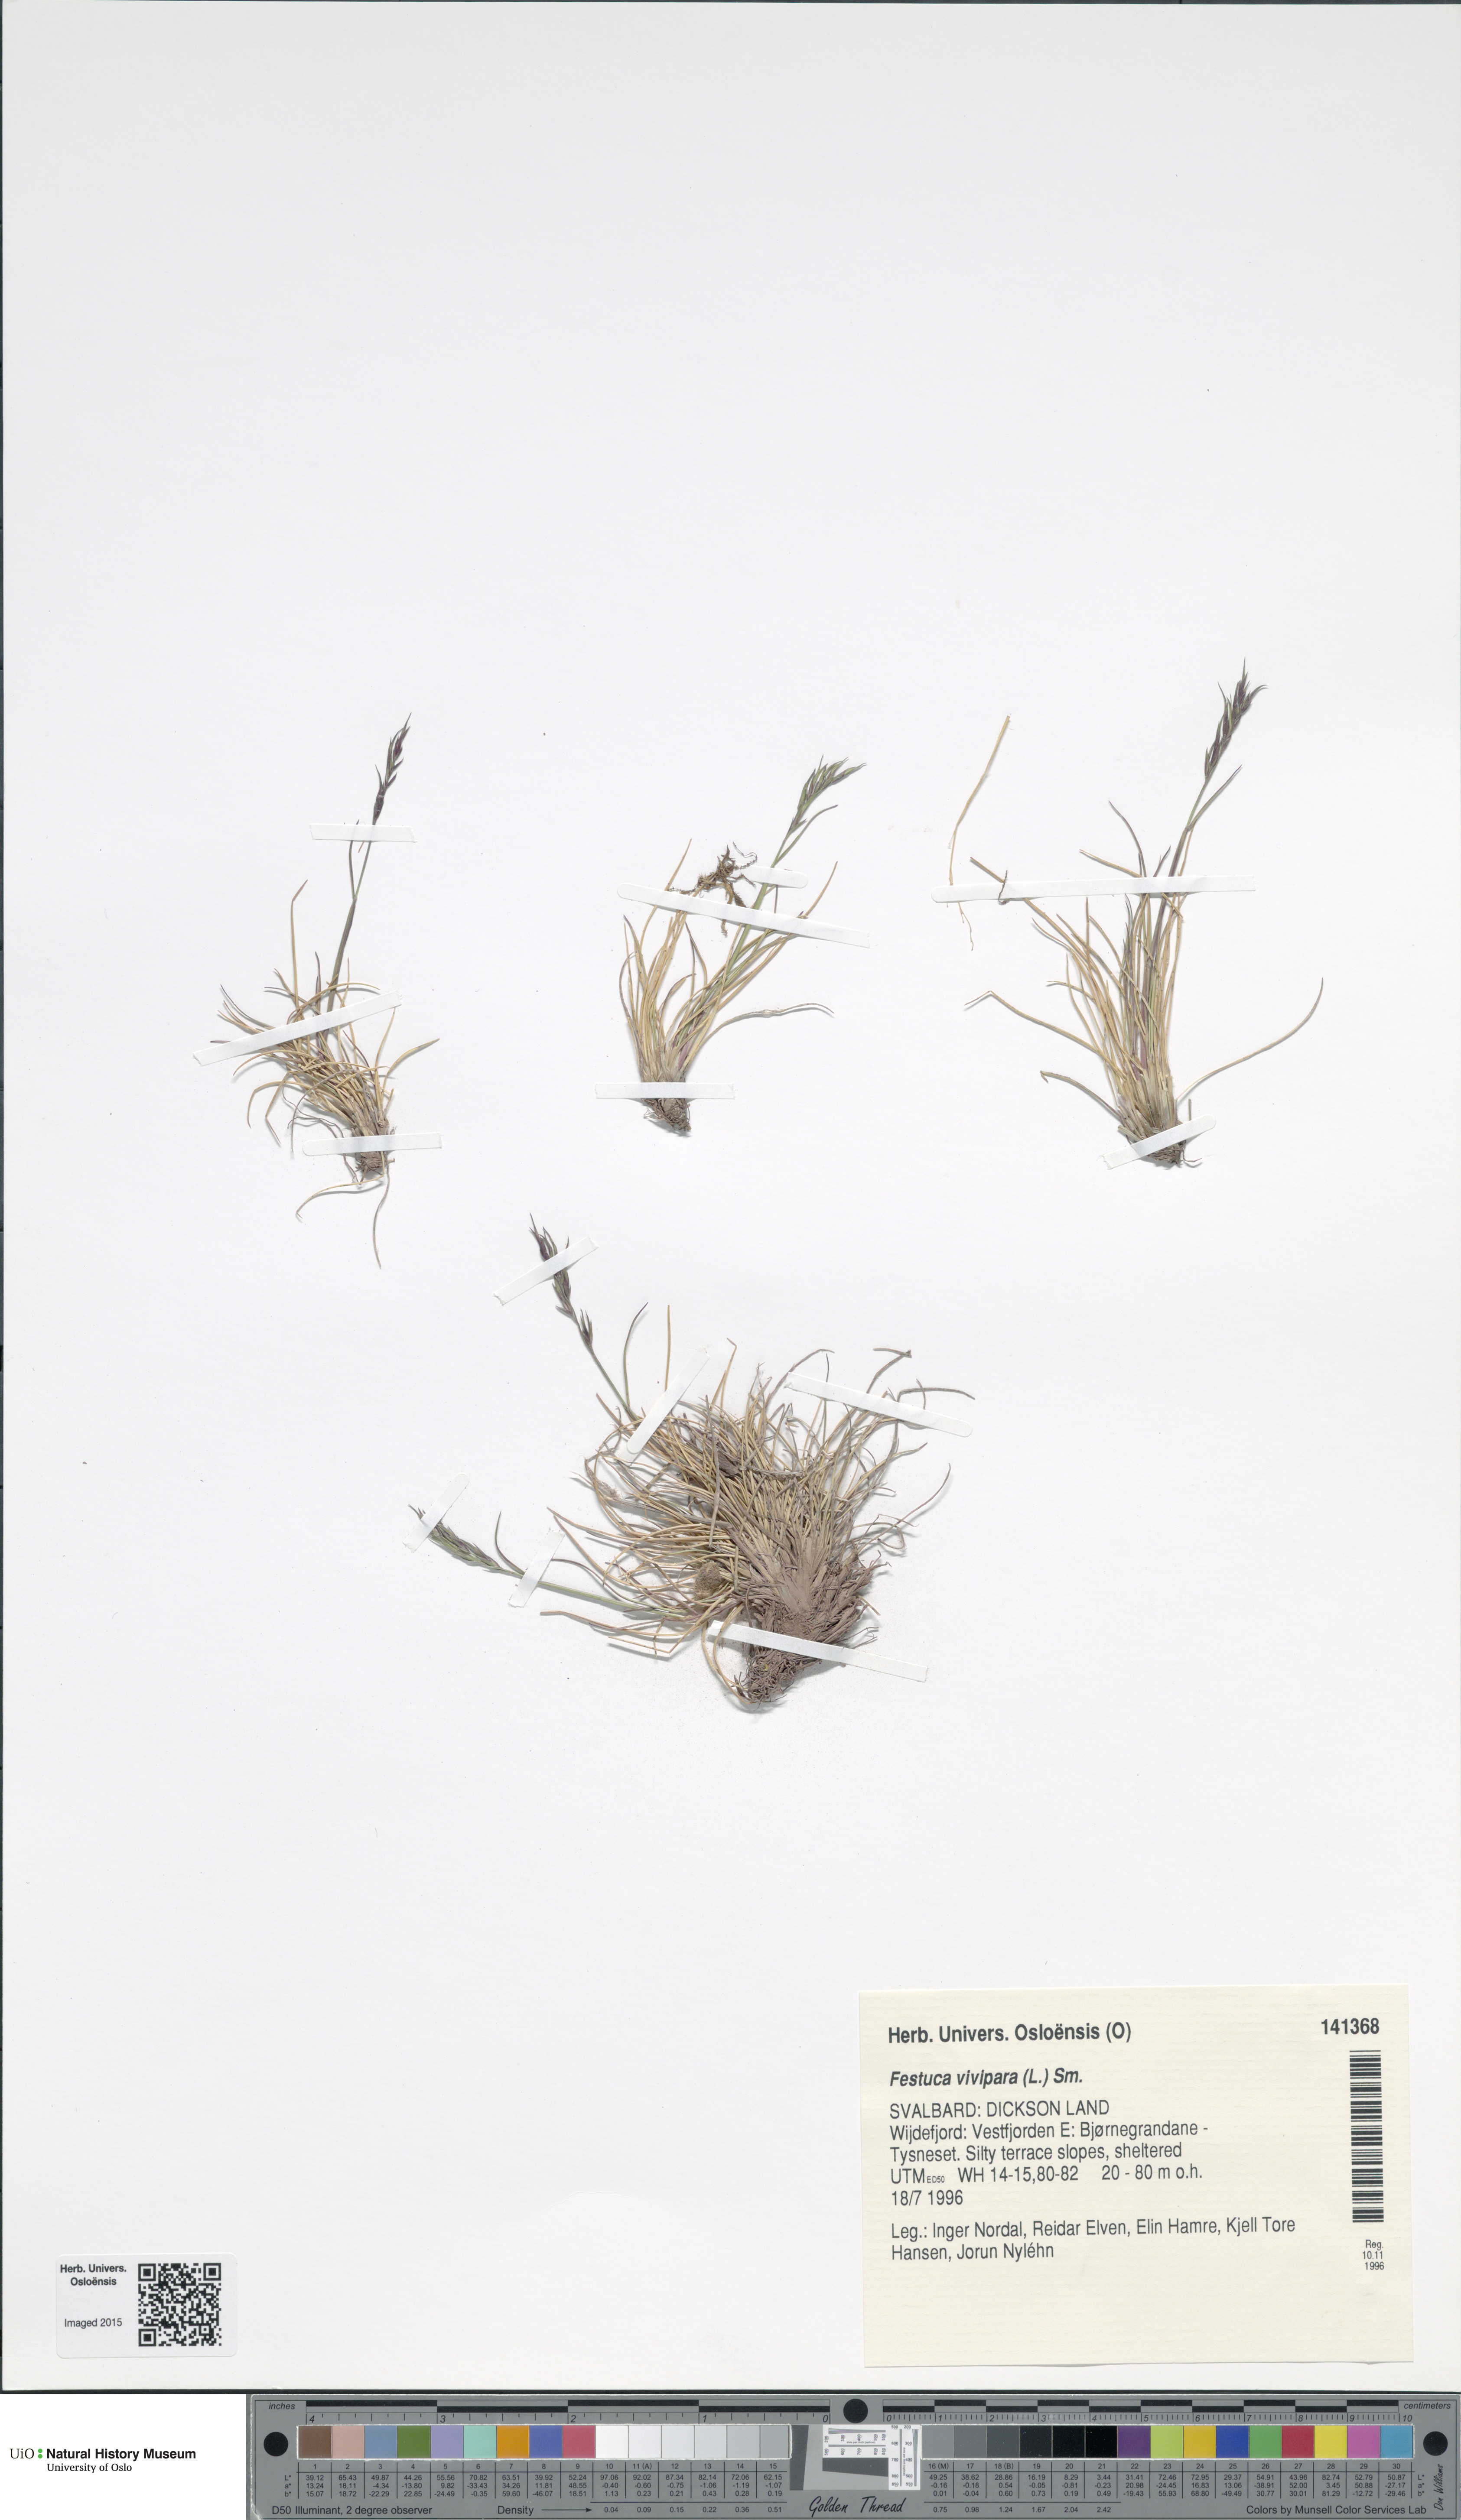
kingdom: Plantae
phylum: Tracheophyta
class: Liliopsida
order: Poales
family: Poaceae
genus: Festuca
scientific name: Festuca vivipara
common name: Viviparous sheep's-fescue
